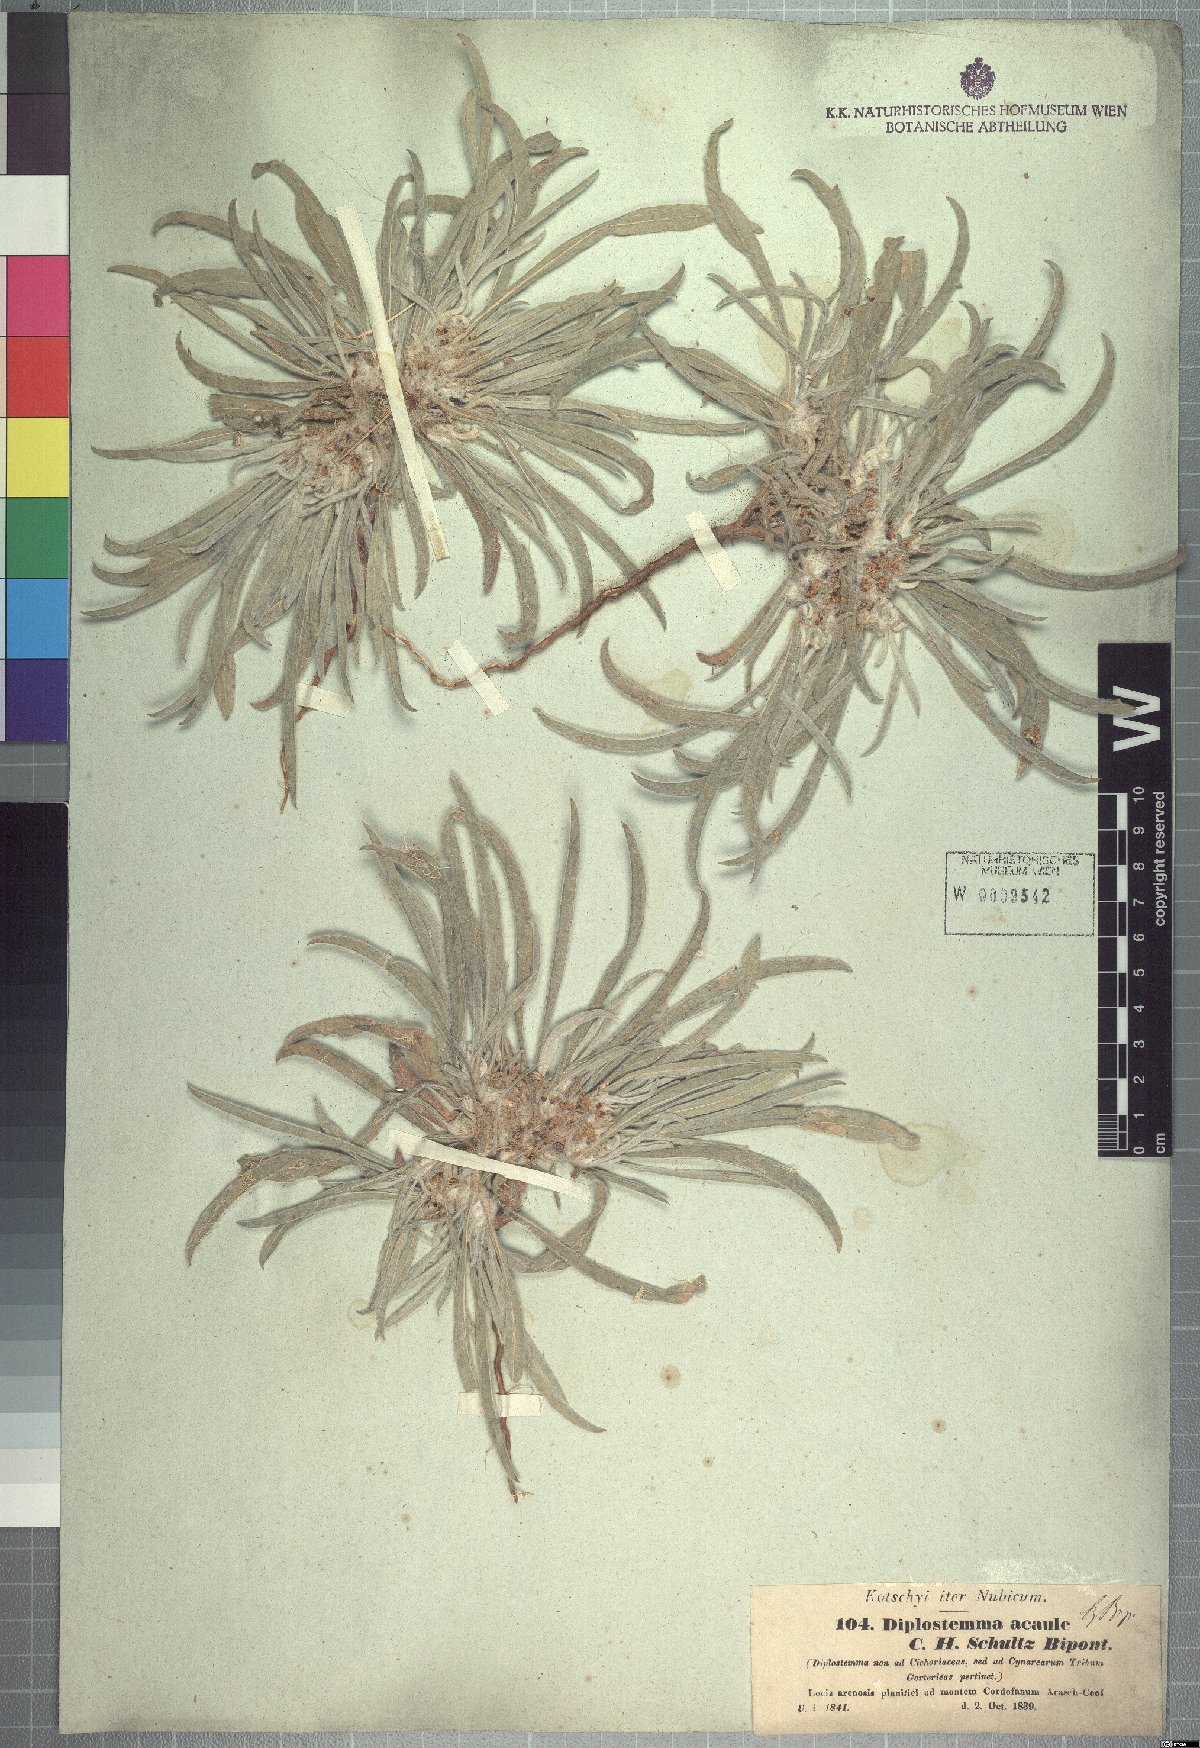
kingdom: Plantae
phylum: Tracheophyta
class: Magnoliopsida
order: Asterales
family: Asteraceae
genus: Geigeria
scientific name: Geigeria acaulis
